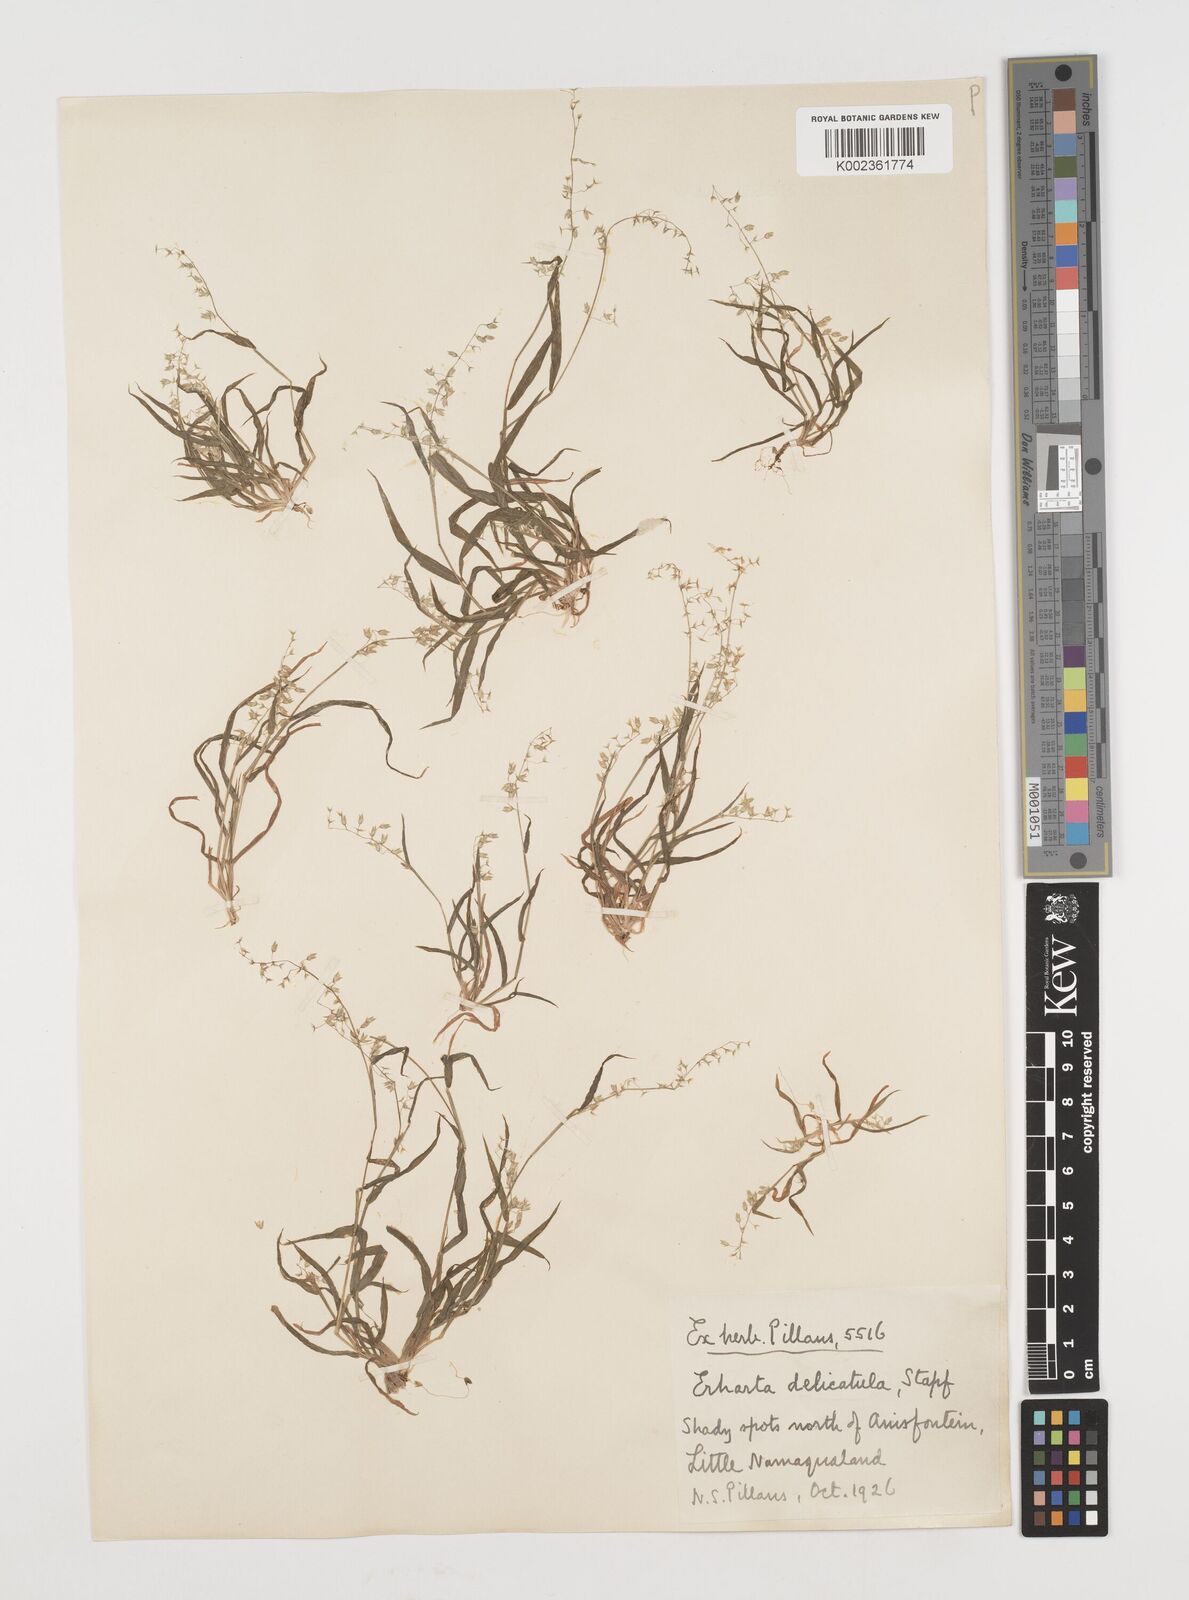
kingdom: Plantae
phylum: Tracheophyta
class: Liliopsida
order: Poales
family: Poaceae
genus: Ehrharta
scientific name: Ehrharta delicatula
